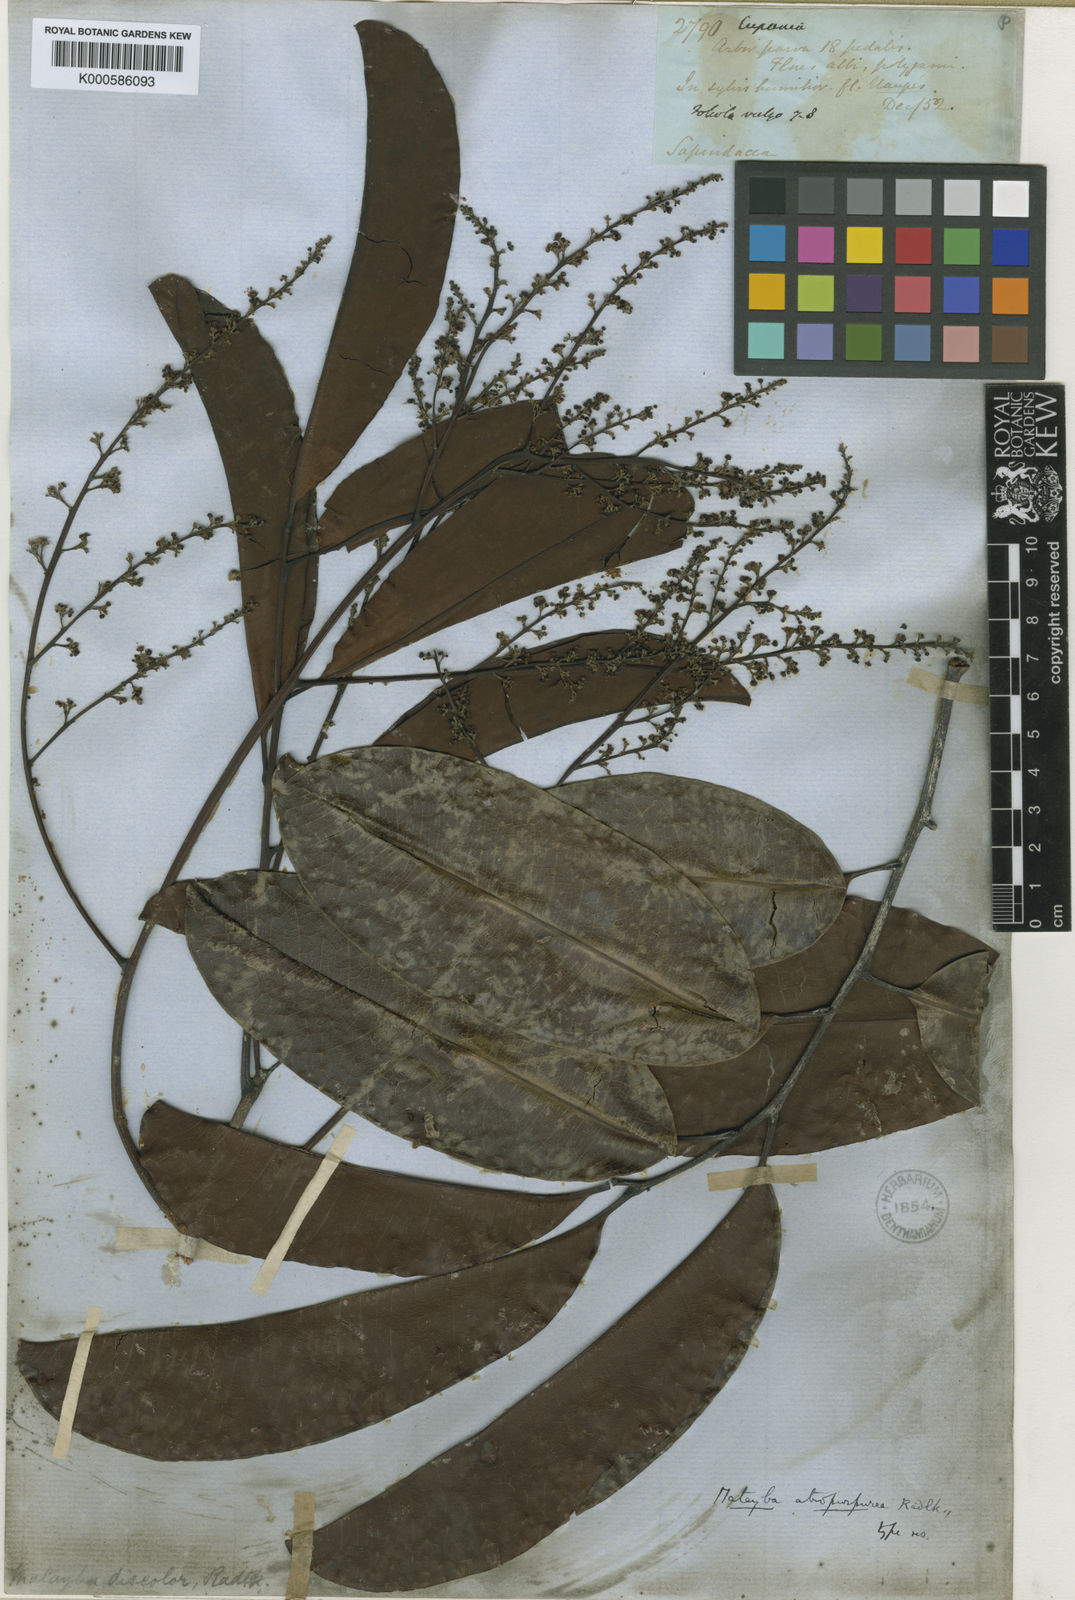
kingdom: Plantae
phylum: Tracheophyta
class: Magnoliopsida
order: Sapindales
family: Sapindaceae
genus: Matayba
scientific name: Matayba atropurpurea
